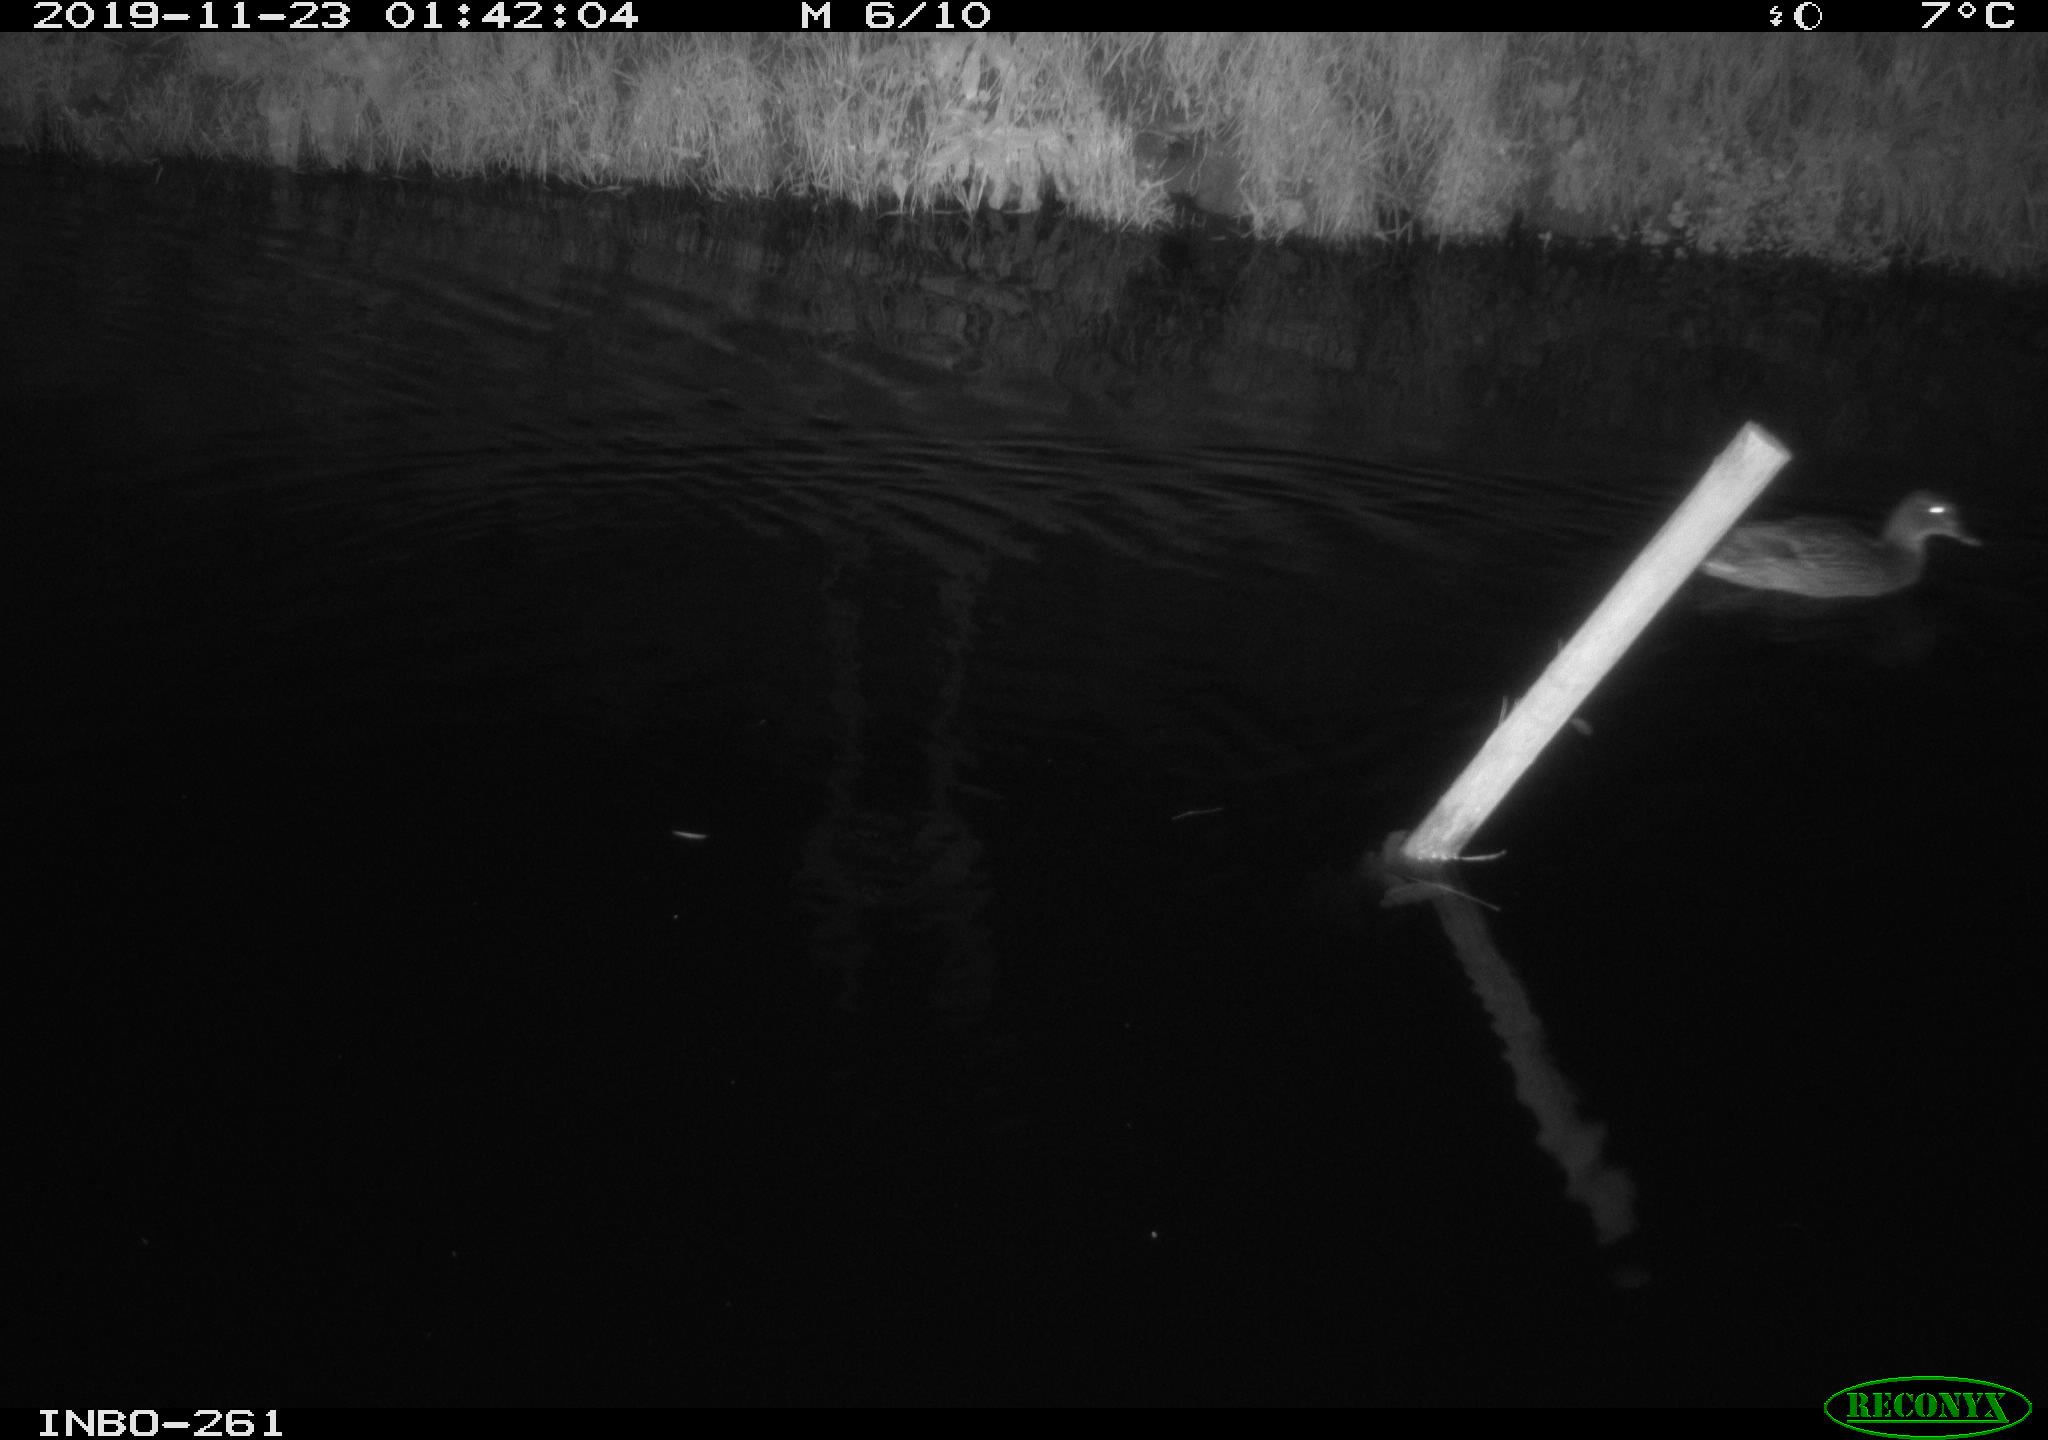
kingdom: Animalia
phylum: Chordata
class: Aves
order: Anseriformes
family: Anatidae
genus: Anas
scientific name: Anas platyrhynchos
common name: Mallard
